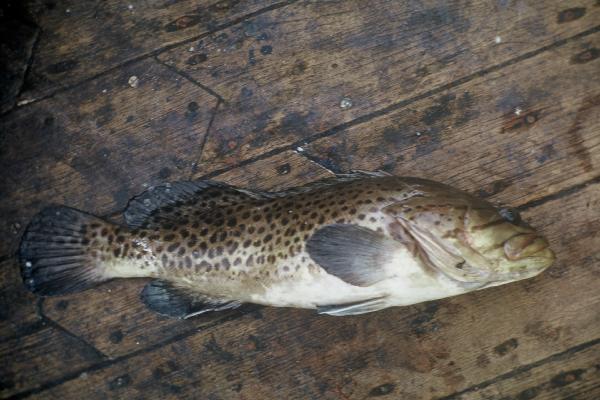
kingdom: Animalia
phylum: Chordata
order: Perciformes
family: Serranidae
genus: Epinephelus
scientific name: Epinephelus andersoni
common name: Catface rockcod
